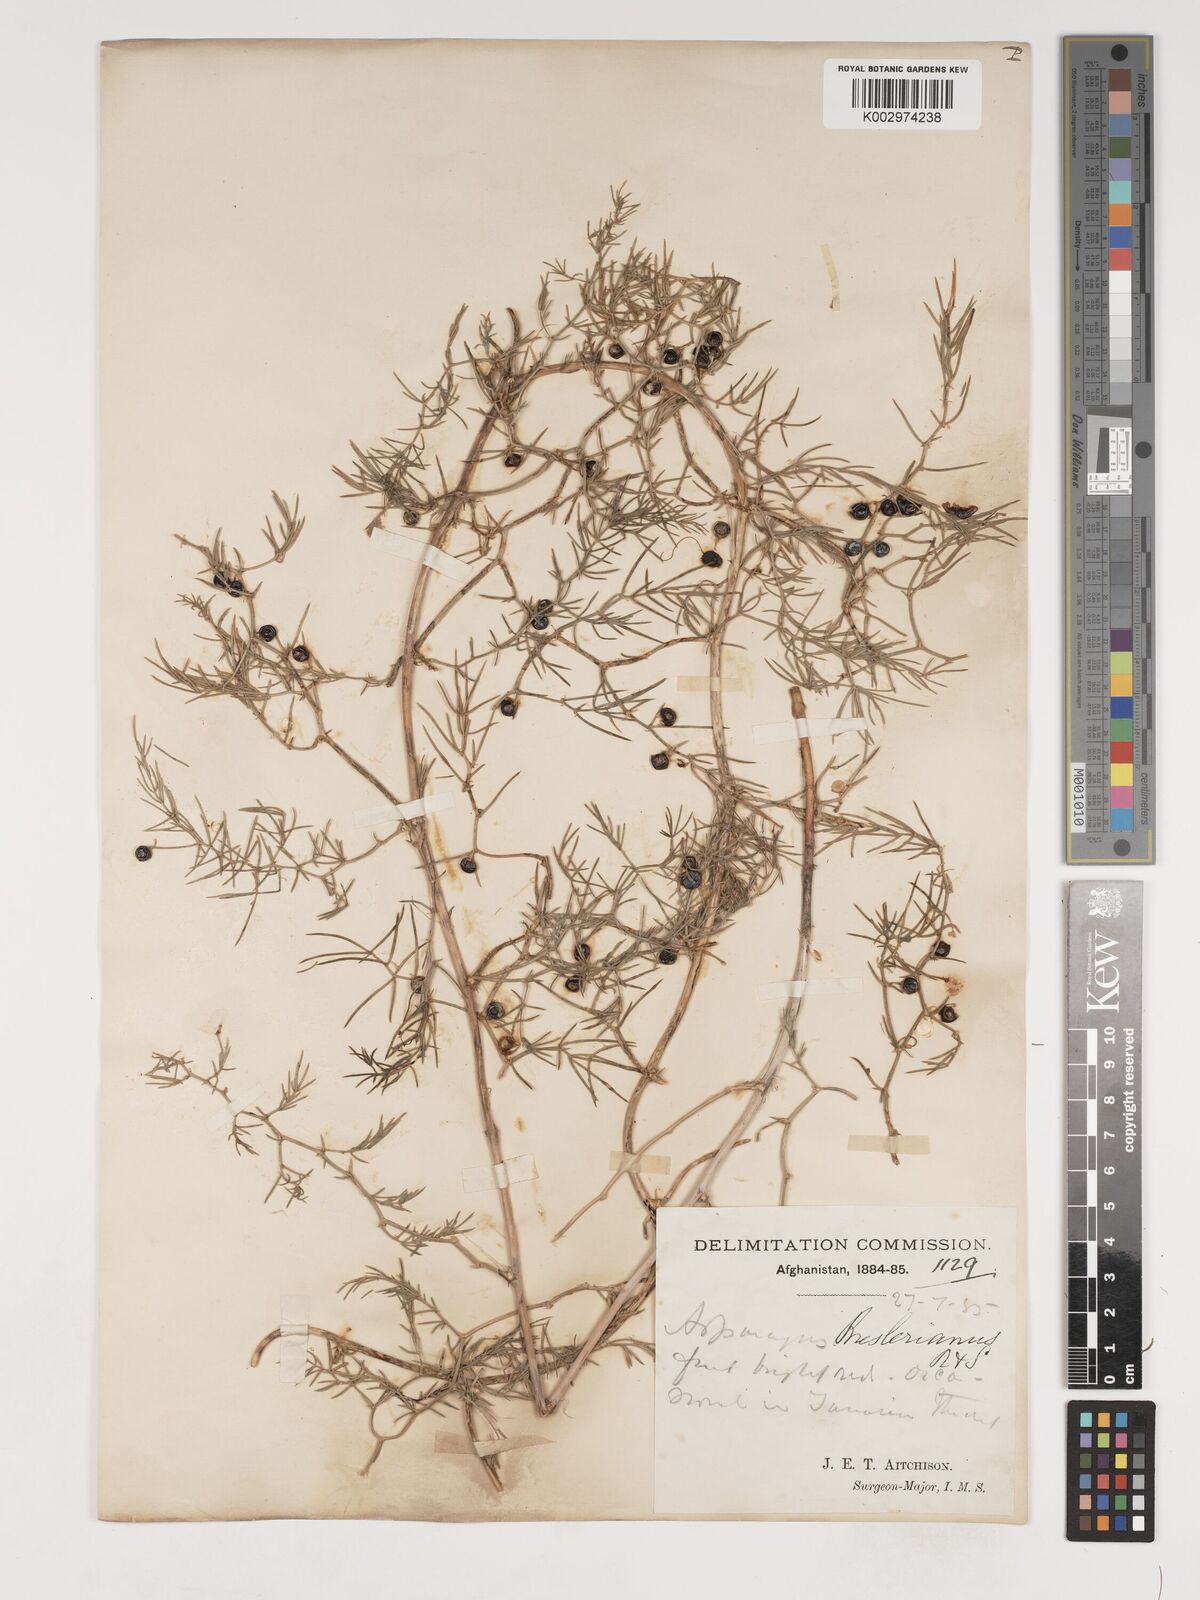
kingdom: Plantae
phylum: Tracheophyta
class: Liliopsida
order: Asparagales
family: Asparagaceae
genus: Asparagus
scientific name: Asparagus breslerianus
